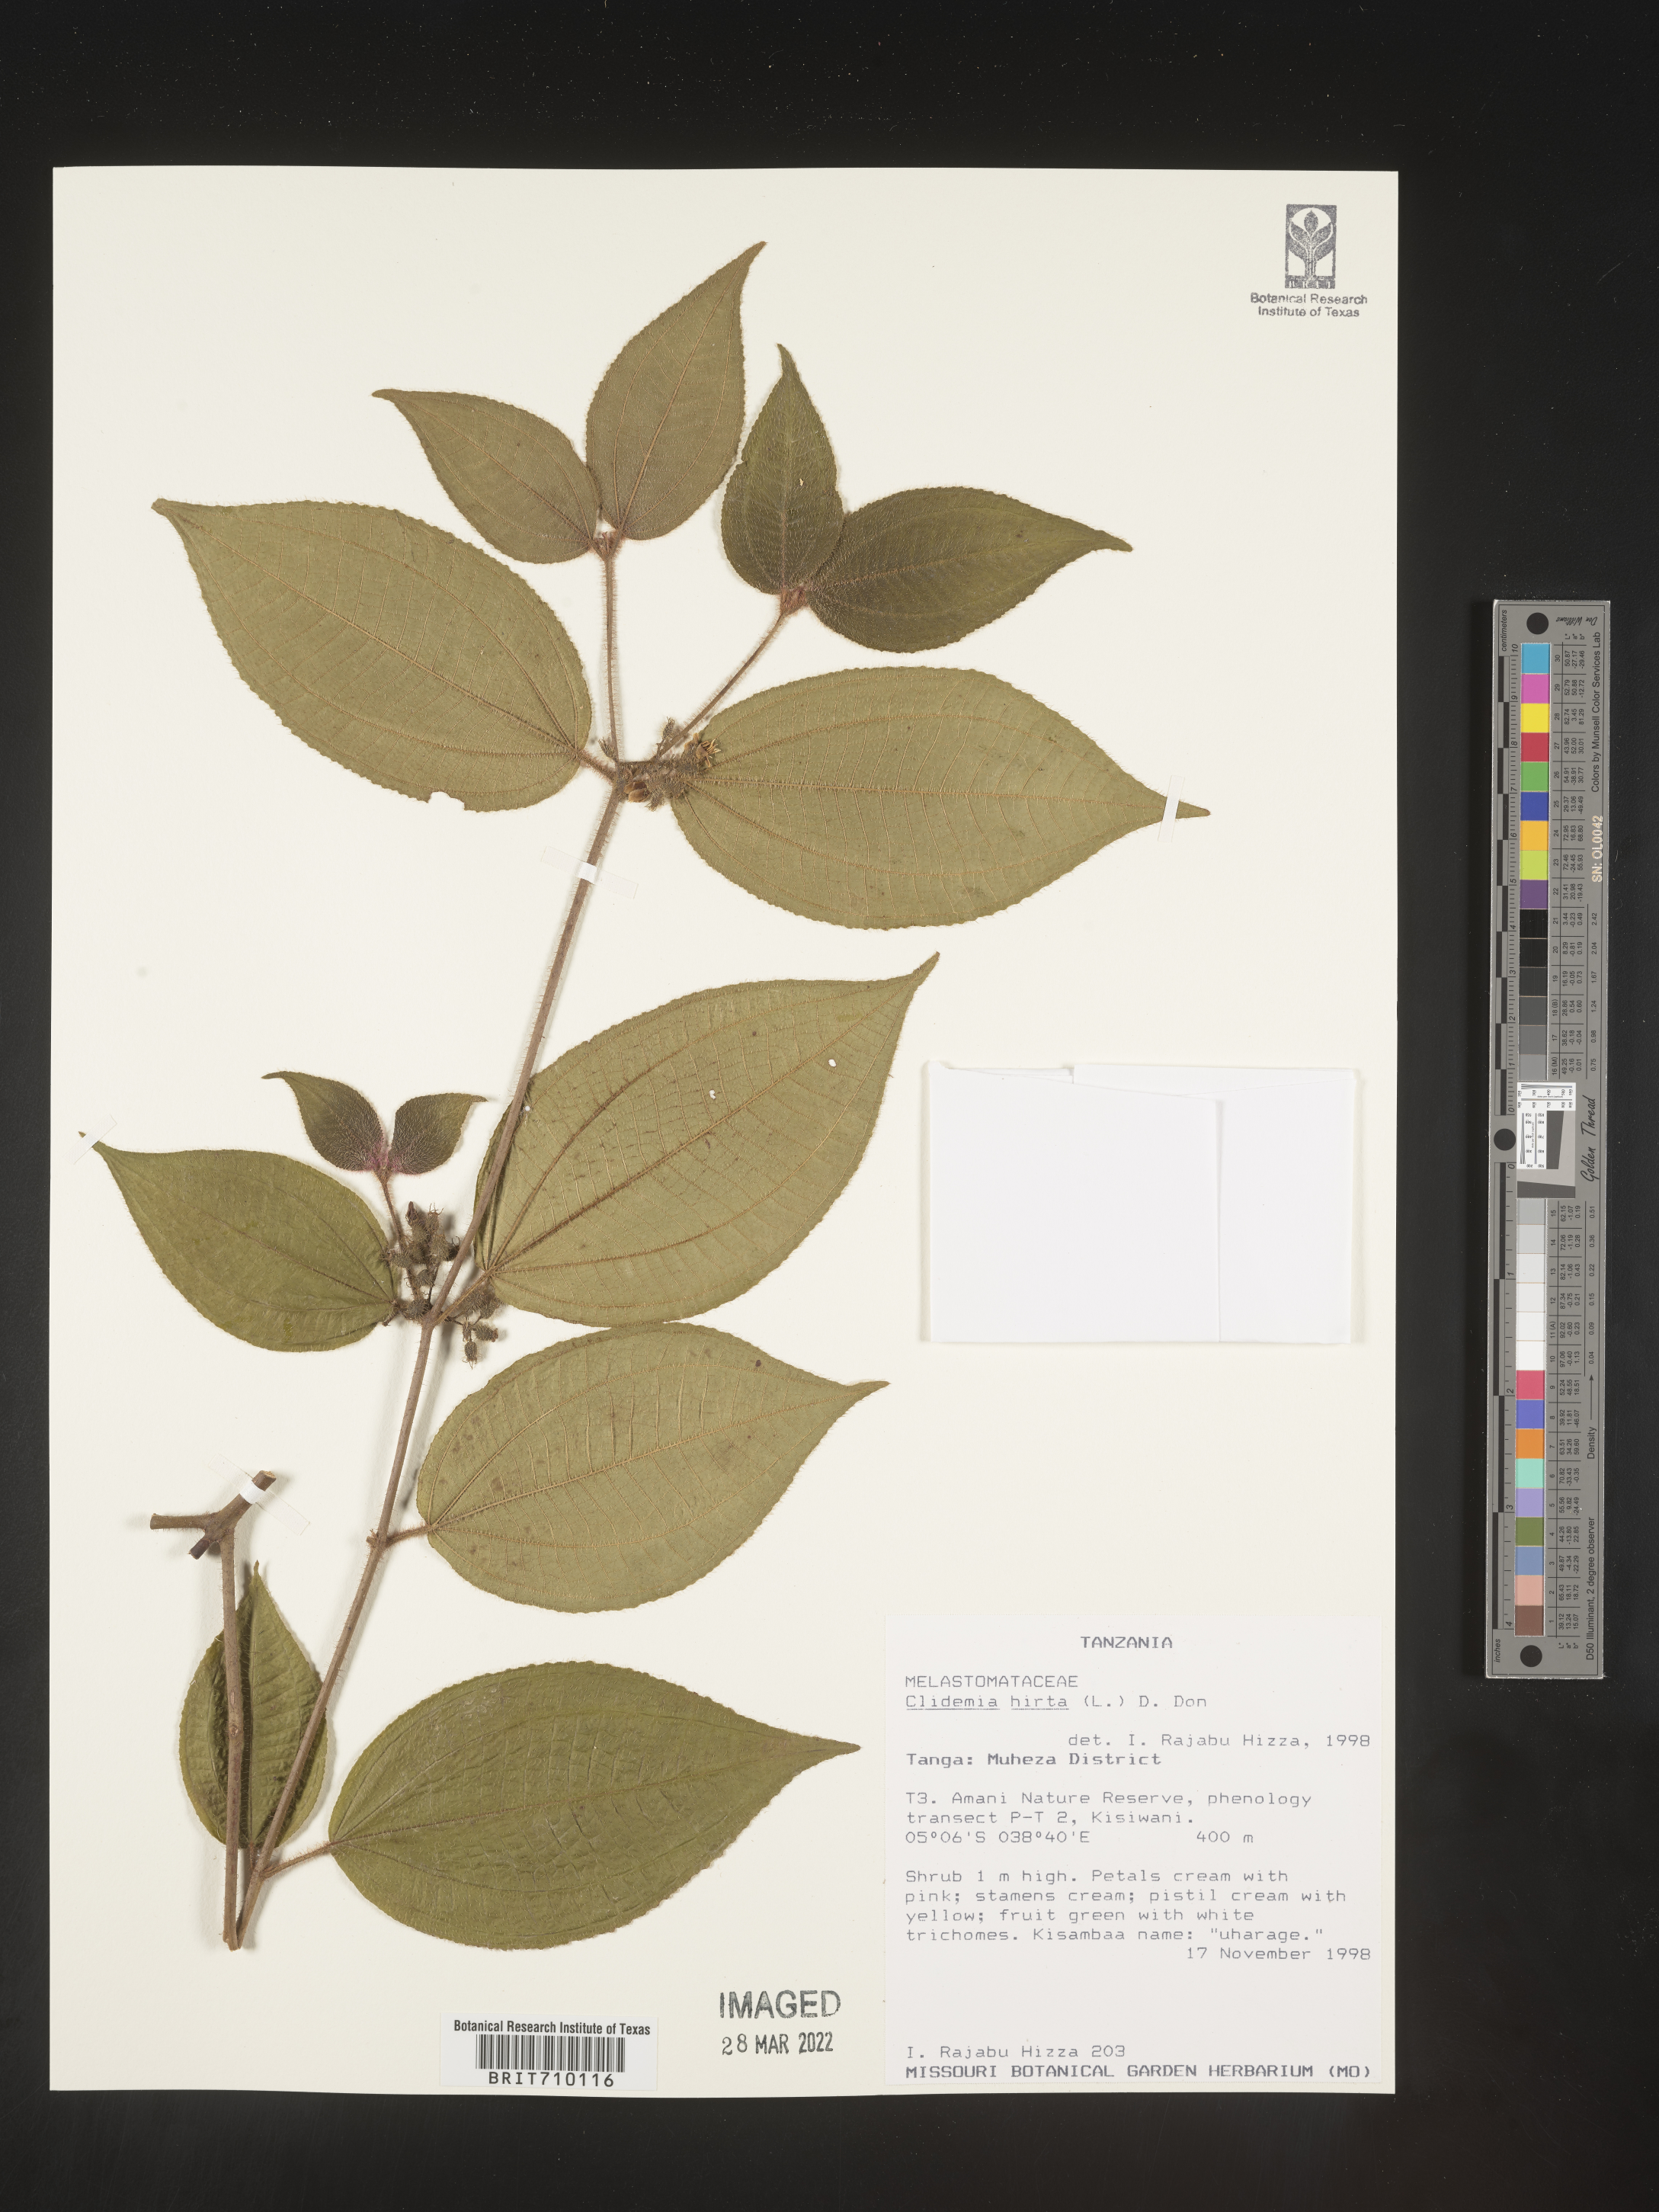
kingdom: Plantae
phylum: Tracheophyta
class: Magnoliopsida
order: Myrtales
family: Melastomataceae
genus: Miconia
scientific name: Miconia
